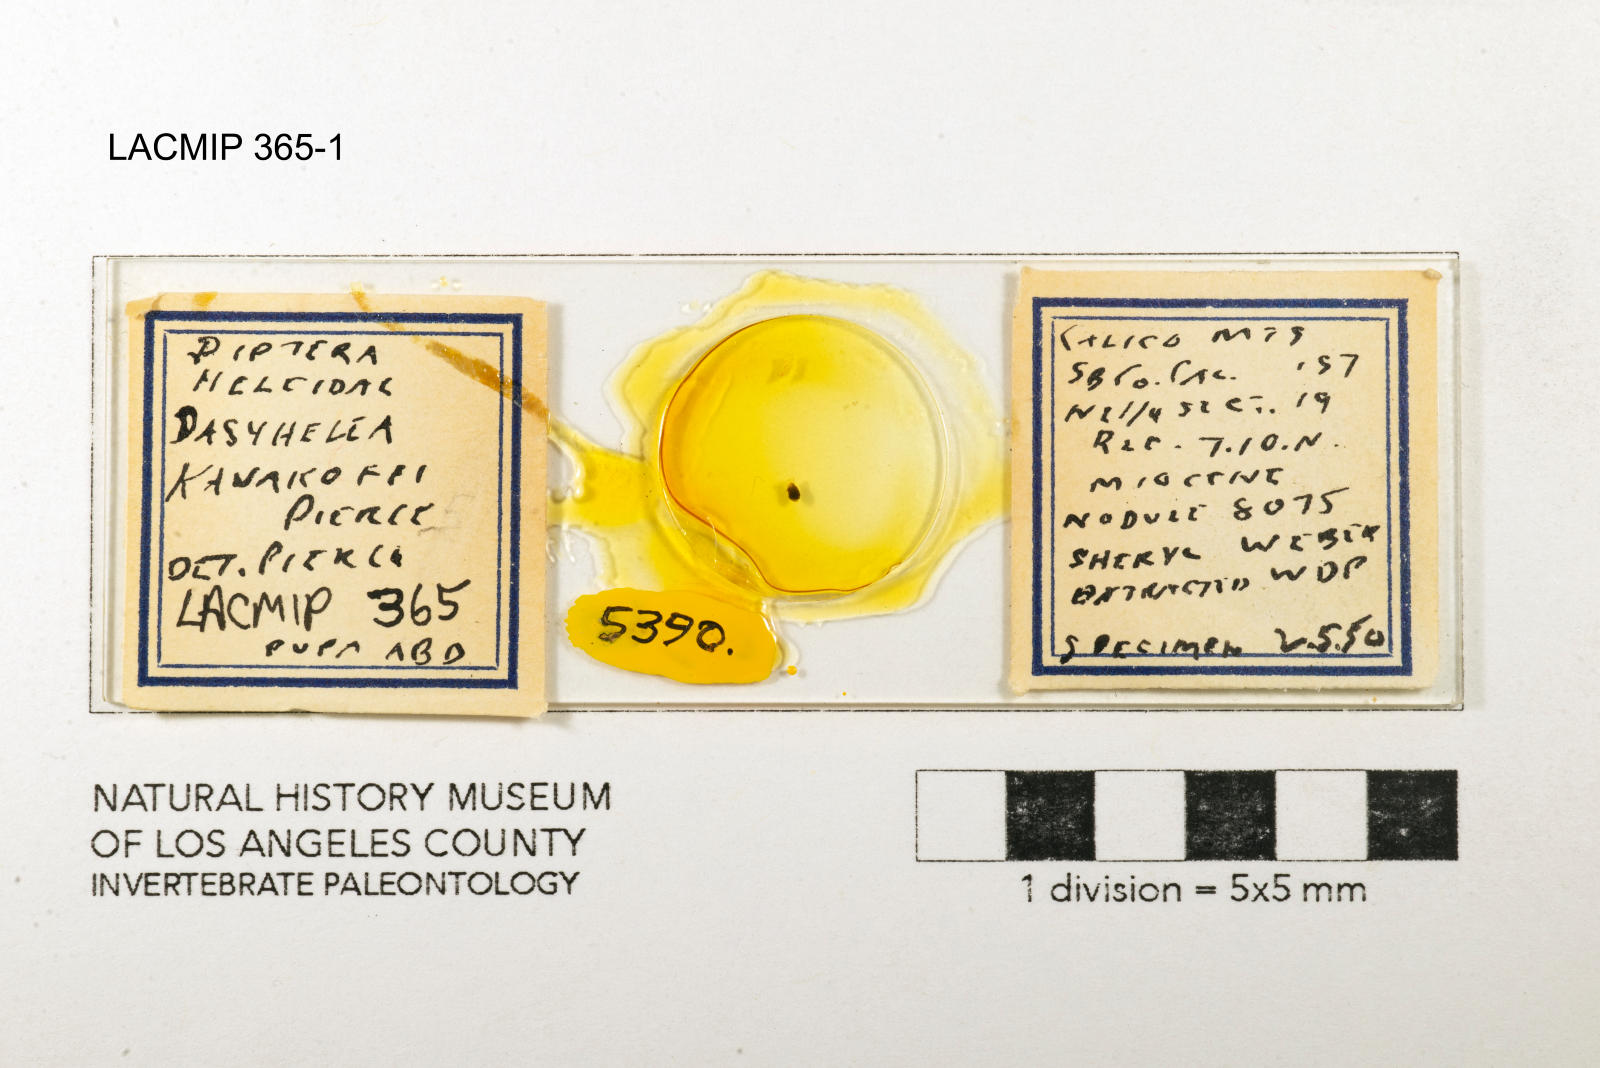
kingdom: Animalia
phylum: Arthropoda
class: Insecta
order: Diptera
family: Ceratopogonidae
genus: Dasyhelea
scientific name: Dasyhelea kanakoffi
